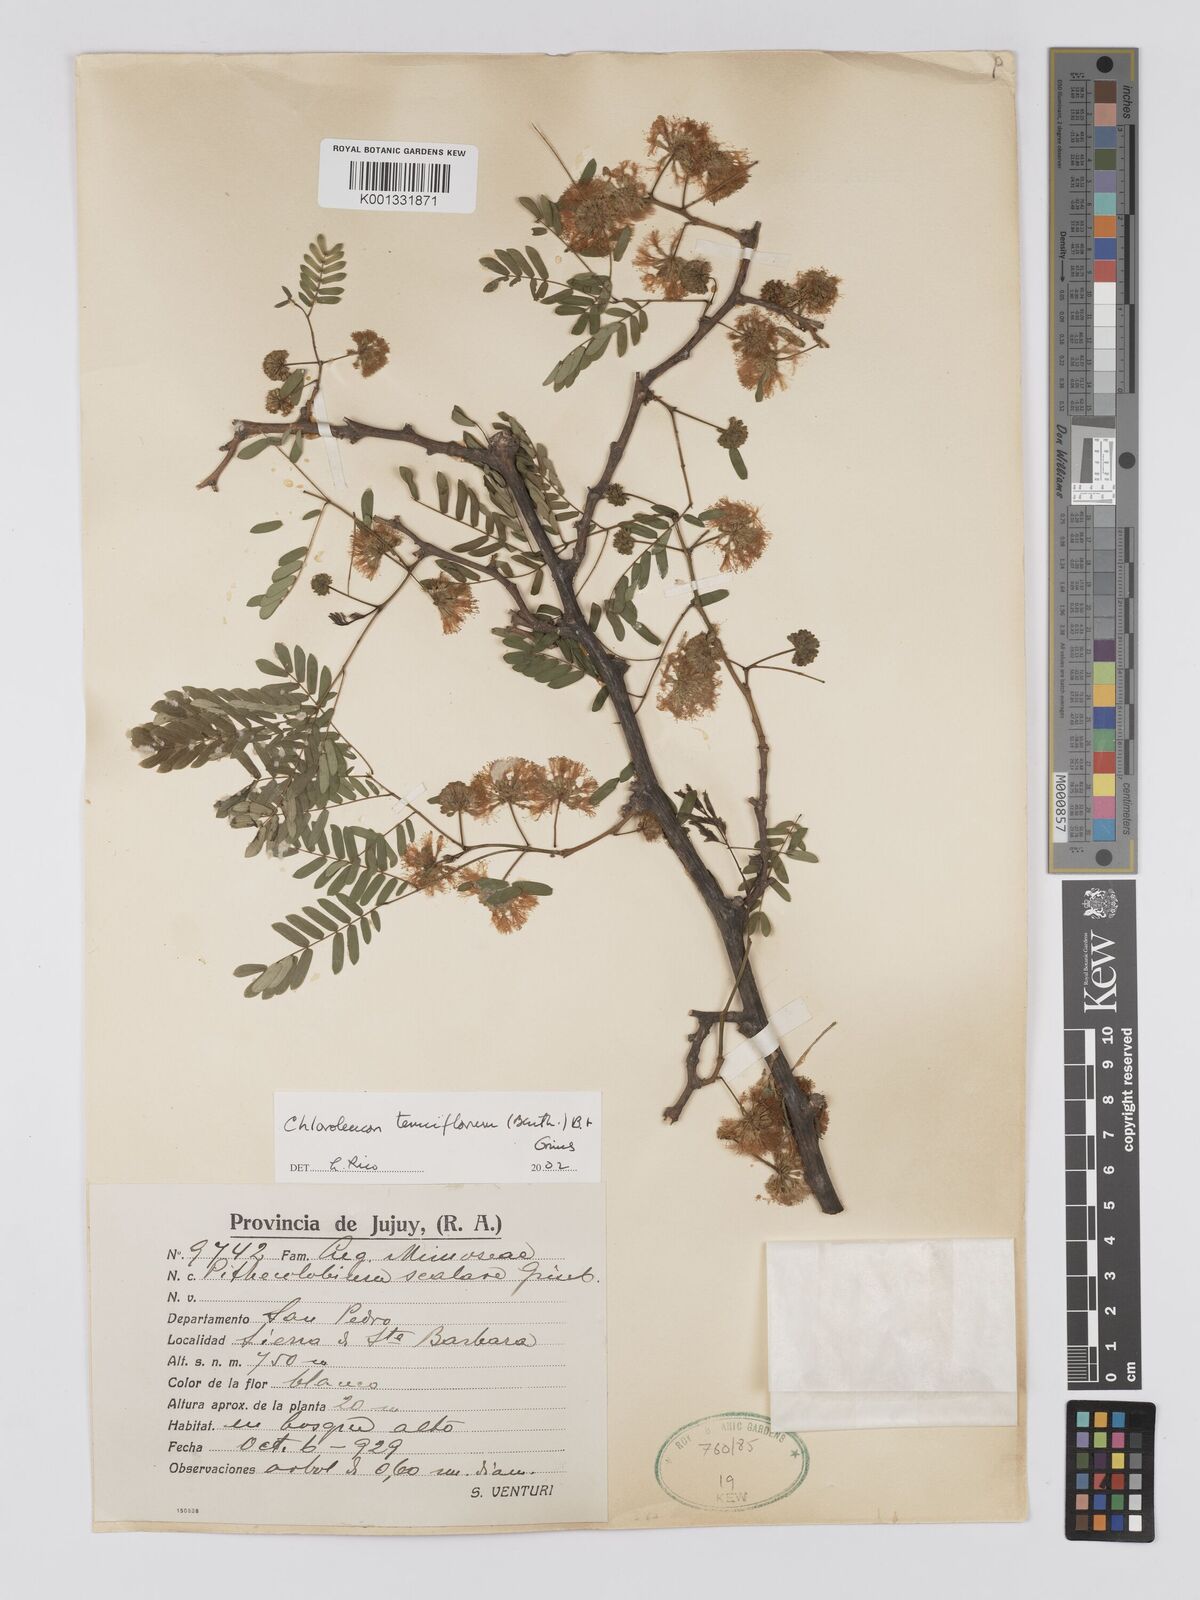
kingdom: Plantae
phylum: Tracheophyta
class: Magnoliopsida
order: Fabales
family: Fabaceae
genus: Chloroleucon
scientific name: Chloroleucon tenuiflorum
